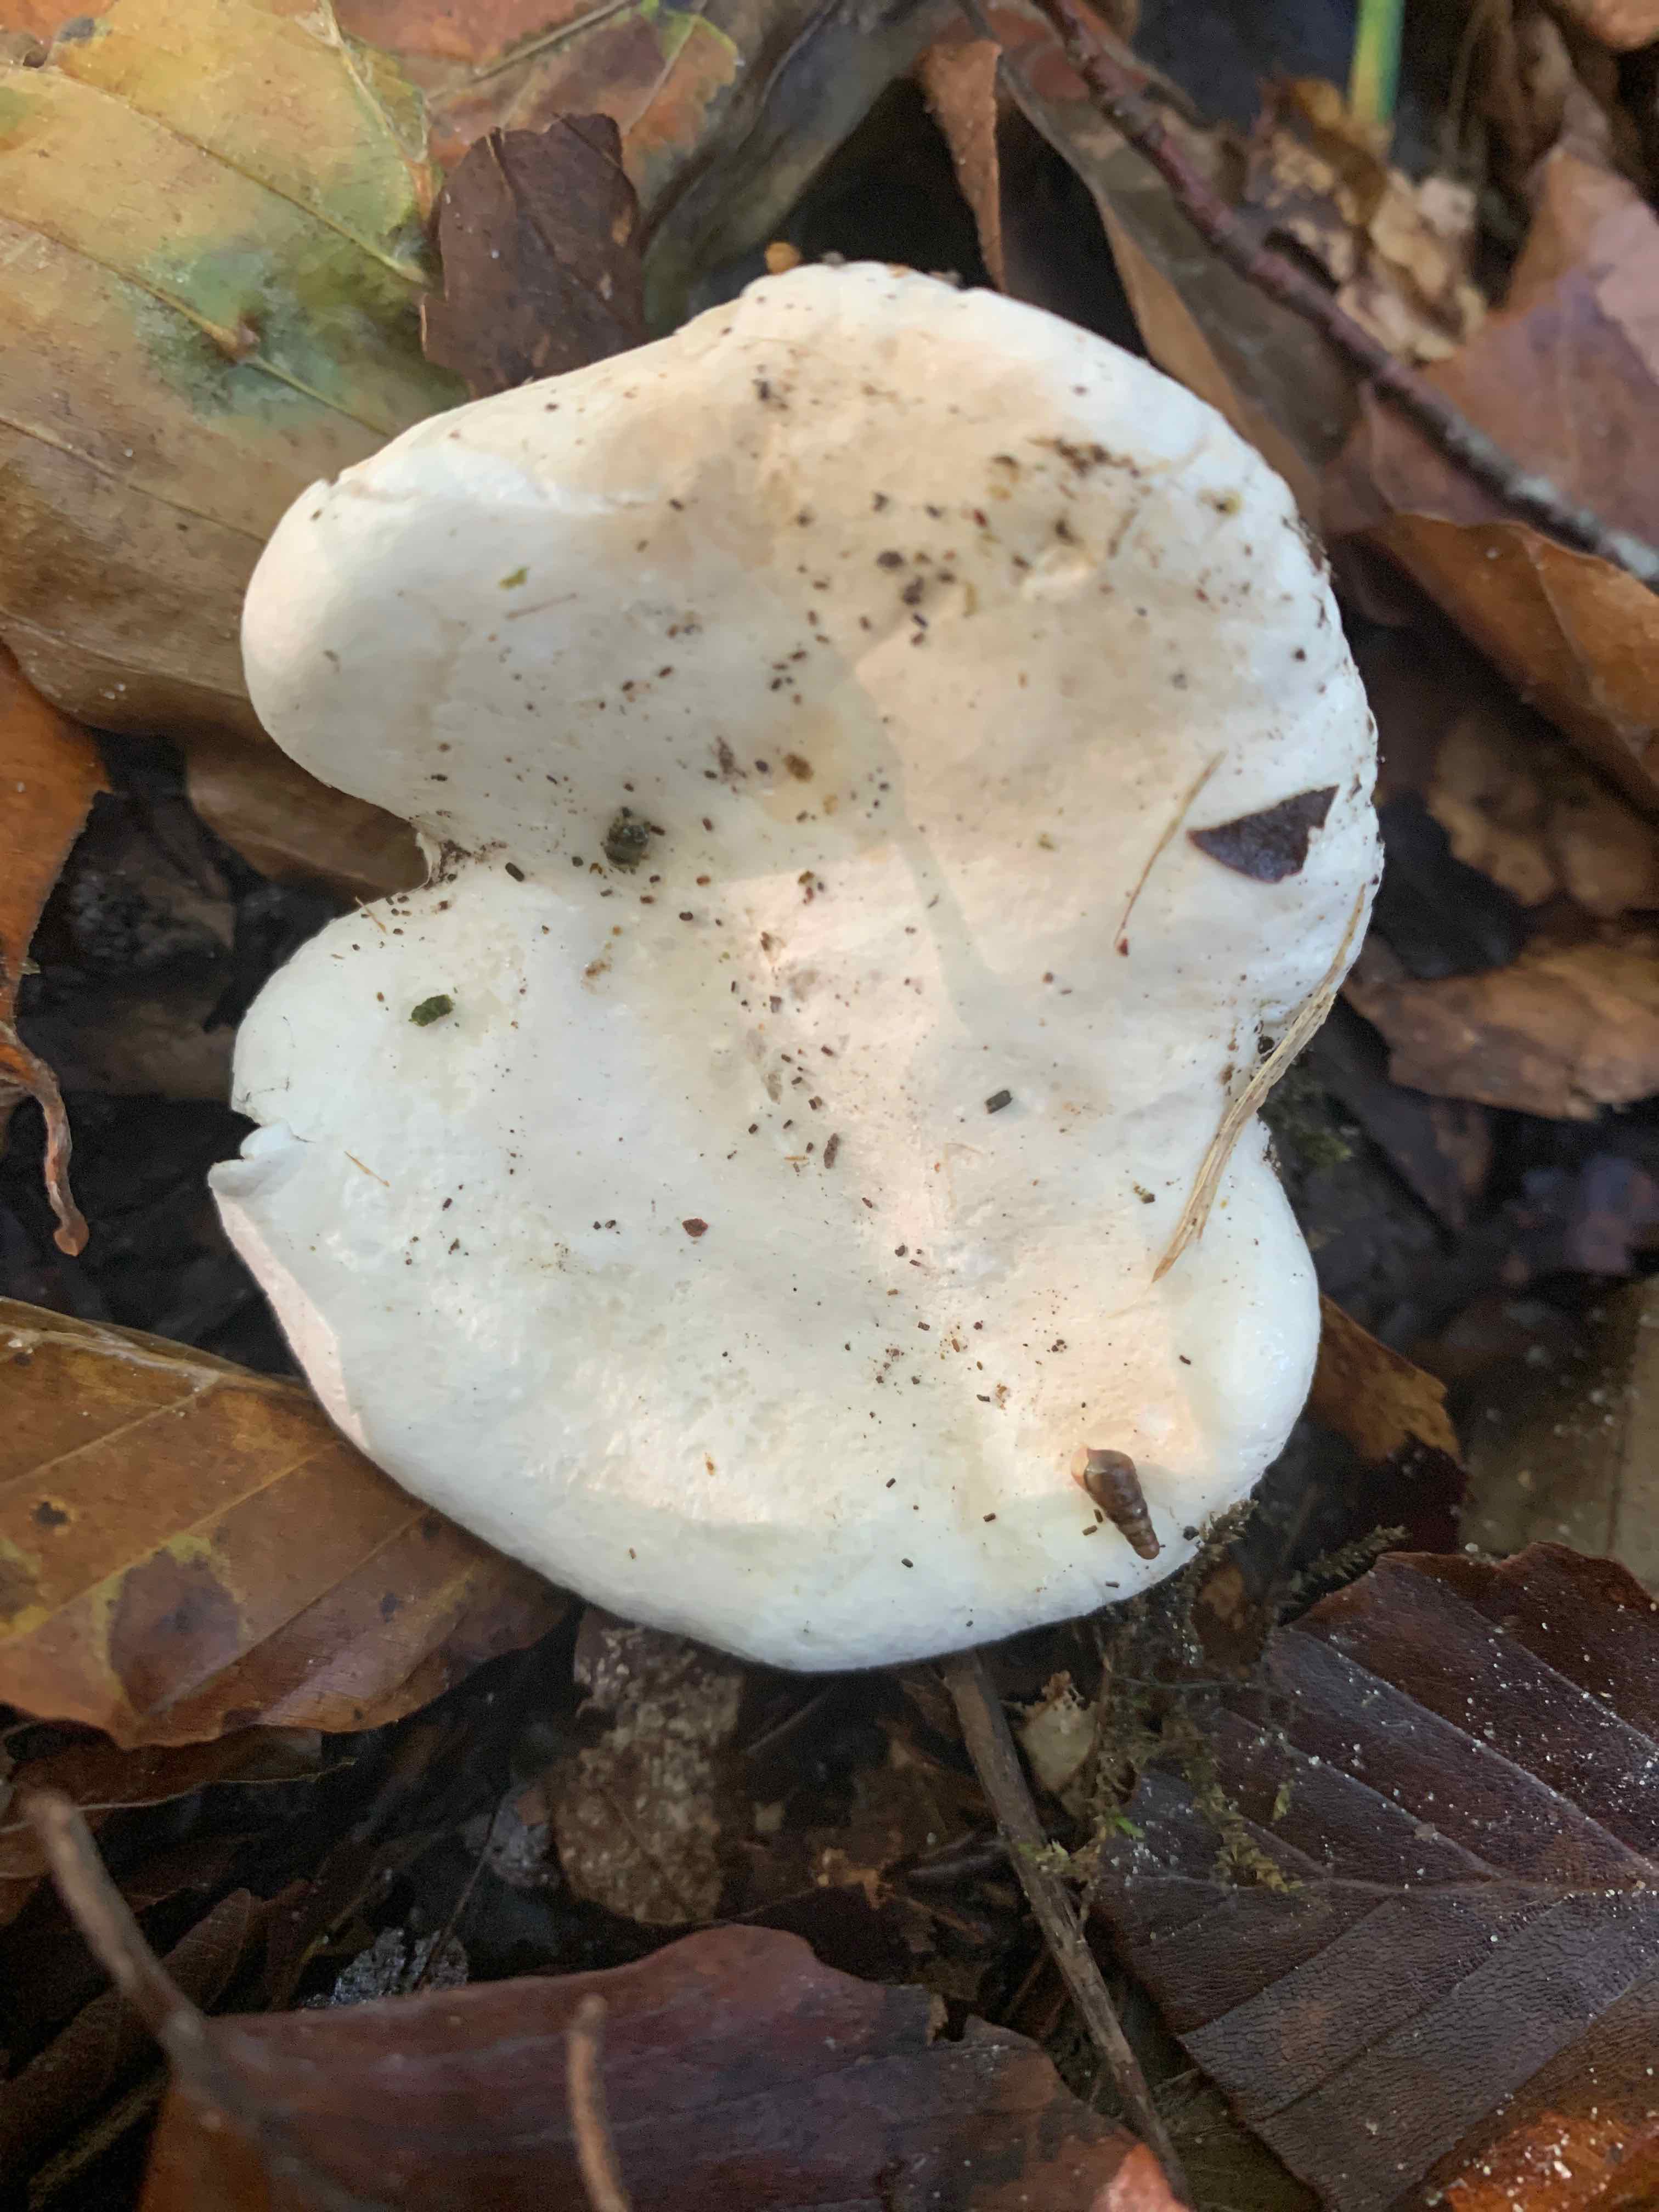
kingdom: Fungi
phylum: Basidiomycota
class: Agaricomycetes
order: Agaricales
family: Entolomataceae
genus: Clitopilus
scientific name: Clitopilus prunulus
